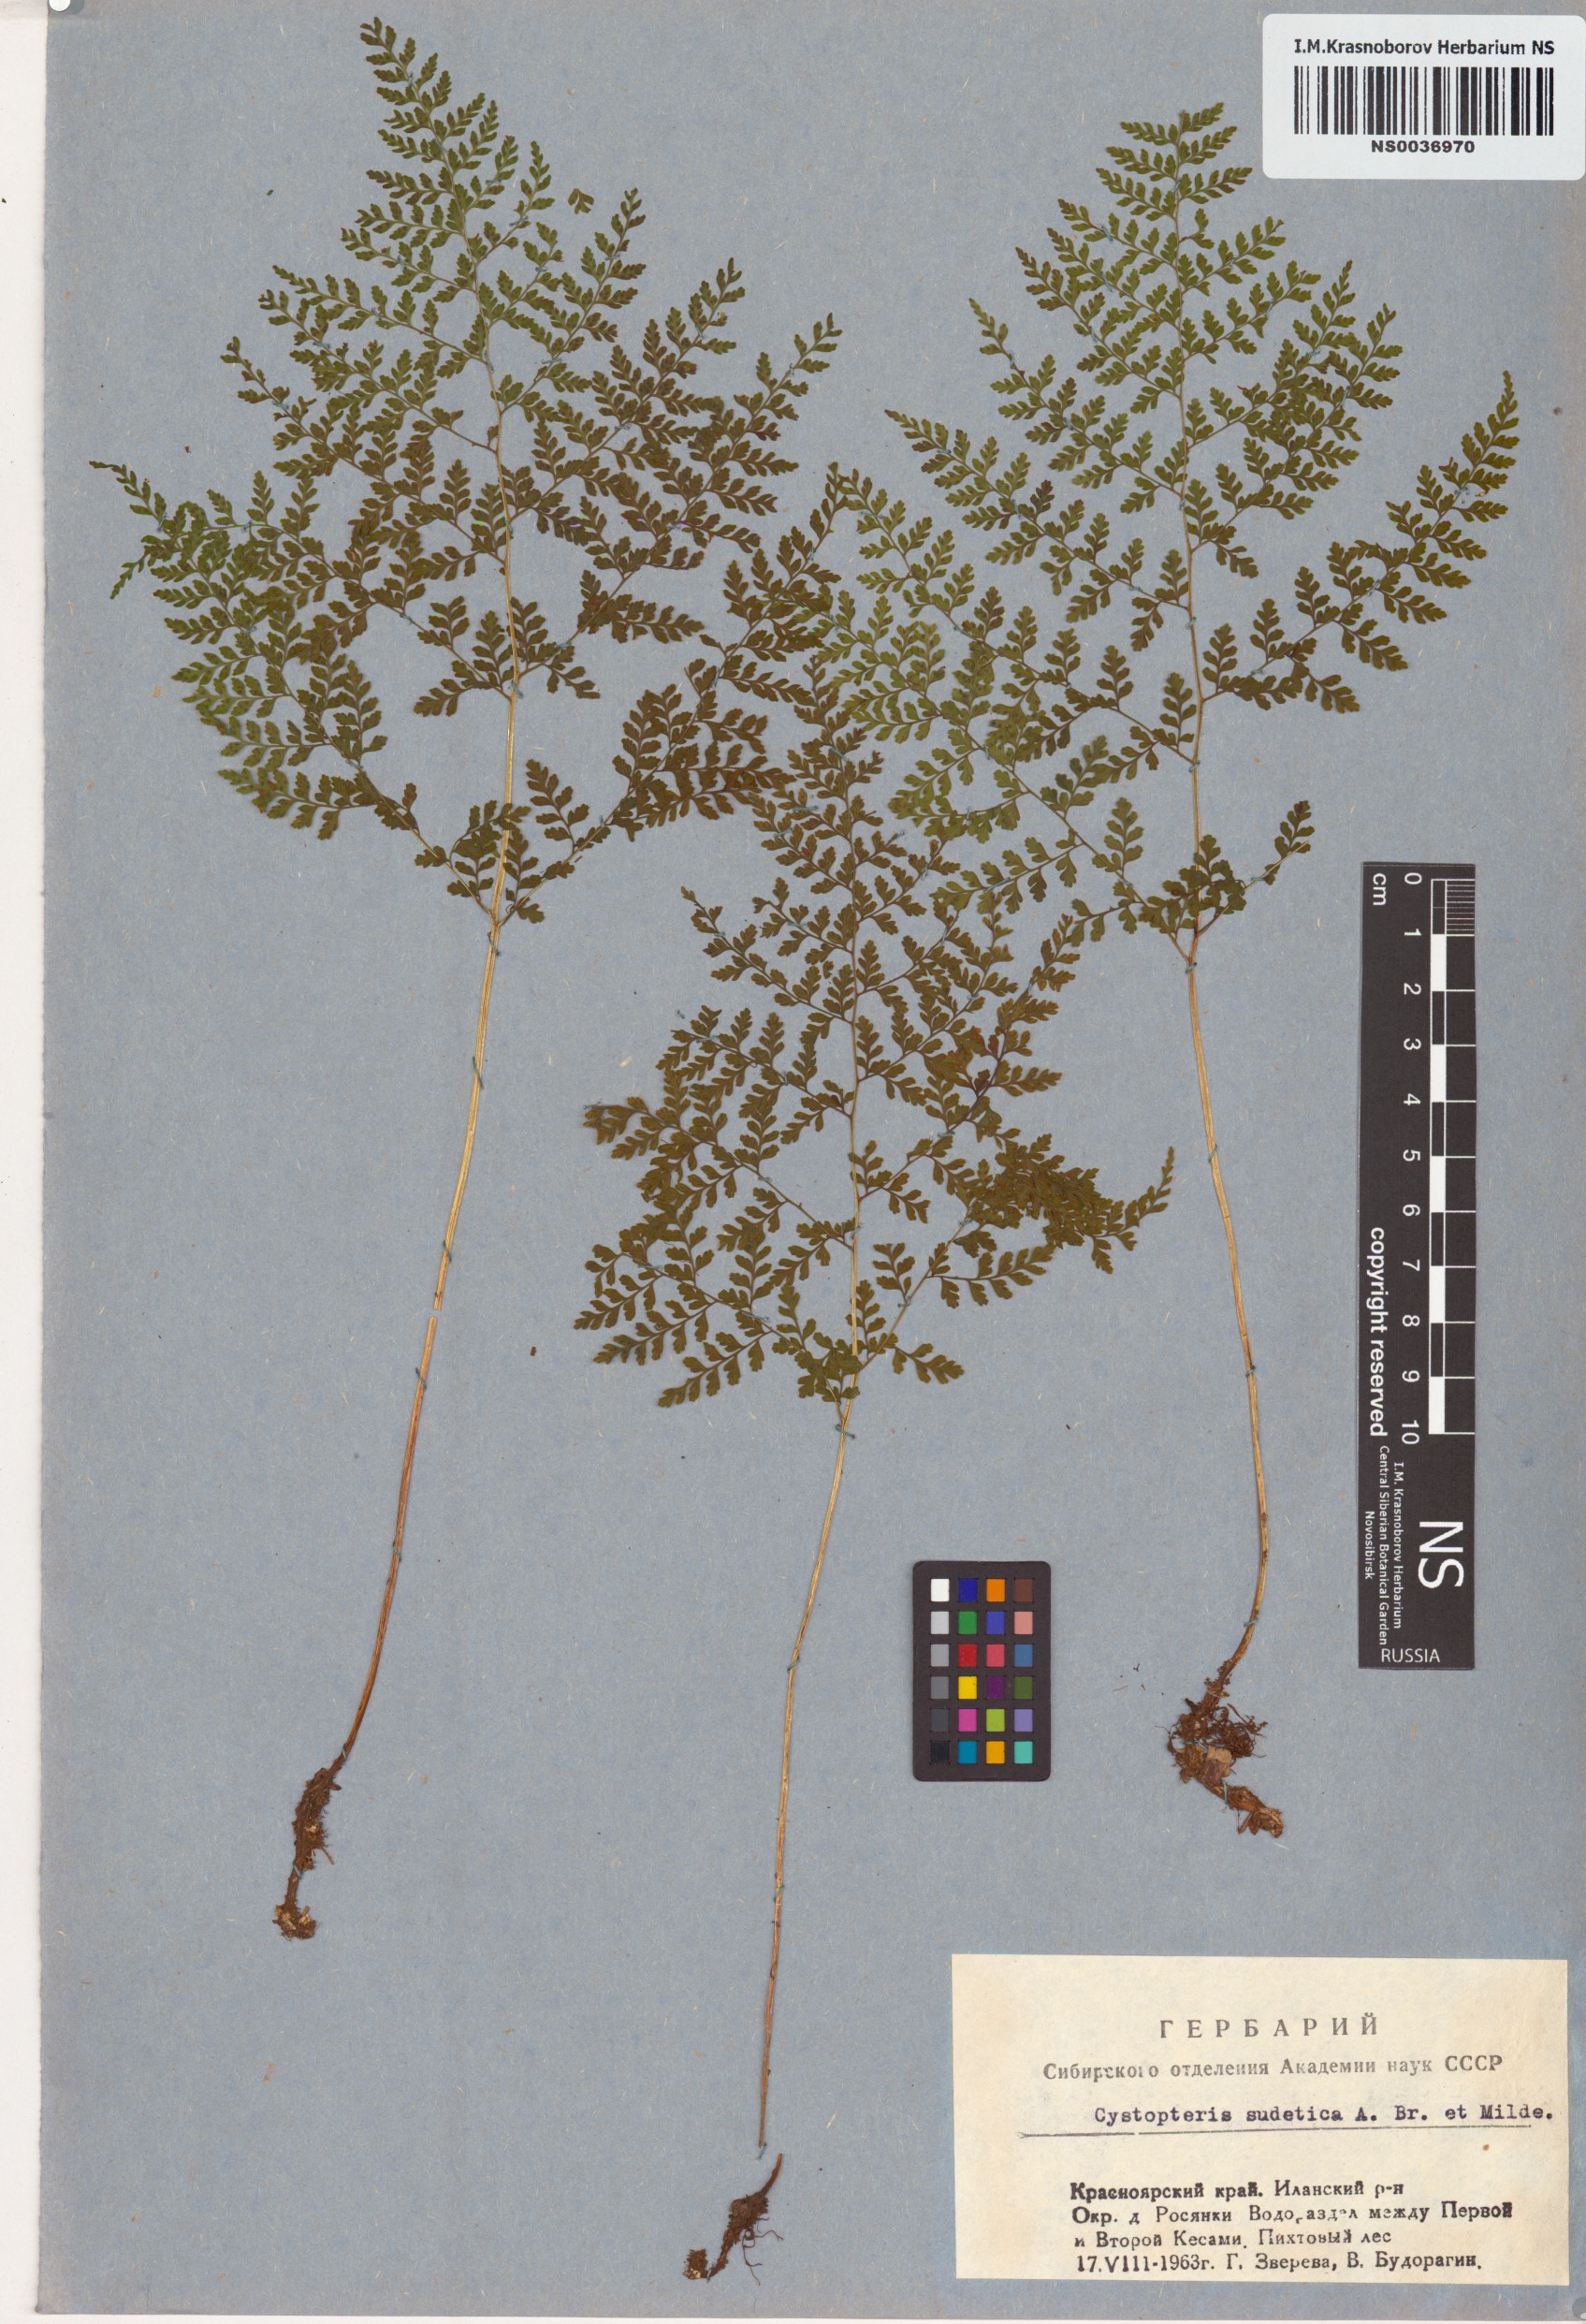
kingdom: Plantae
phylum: Tracheophyta
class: Polypodiopsida
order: Polypodiales
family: Cystopteridaceae
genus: Cystopteris
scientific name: Cystopteris sudetica
